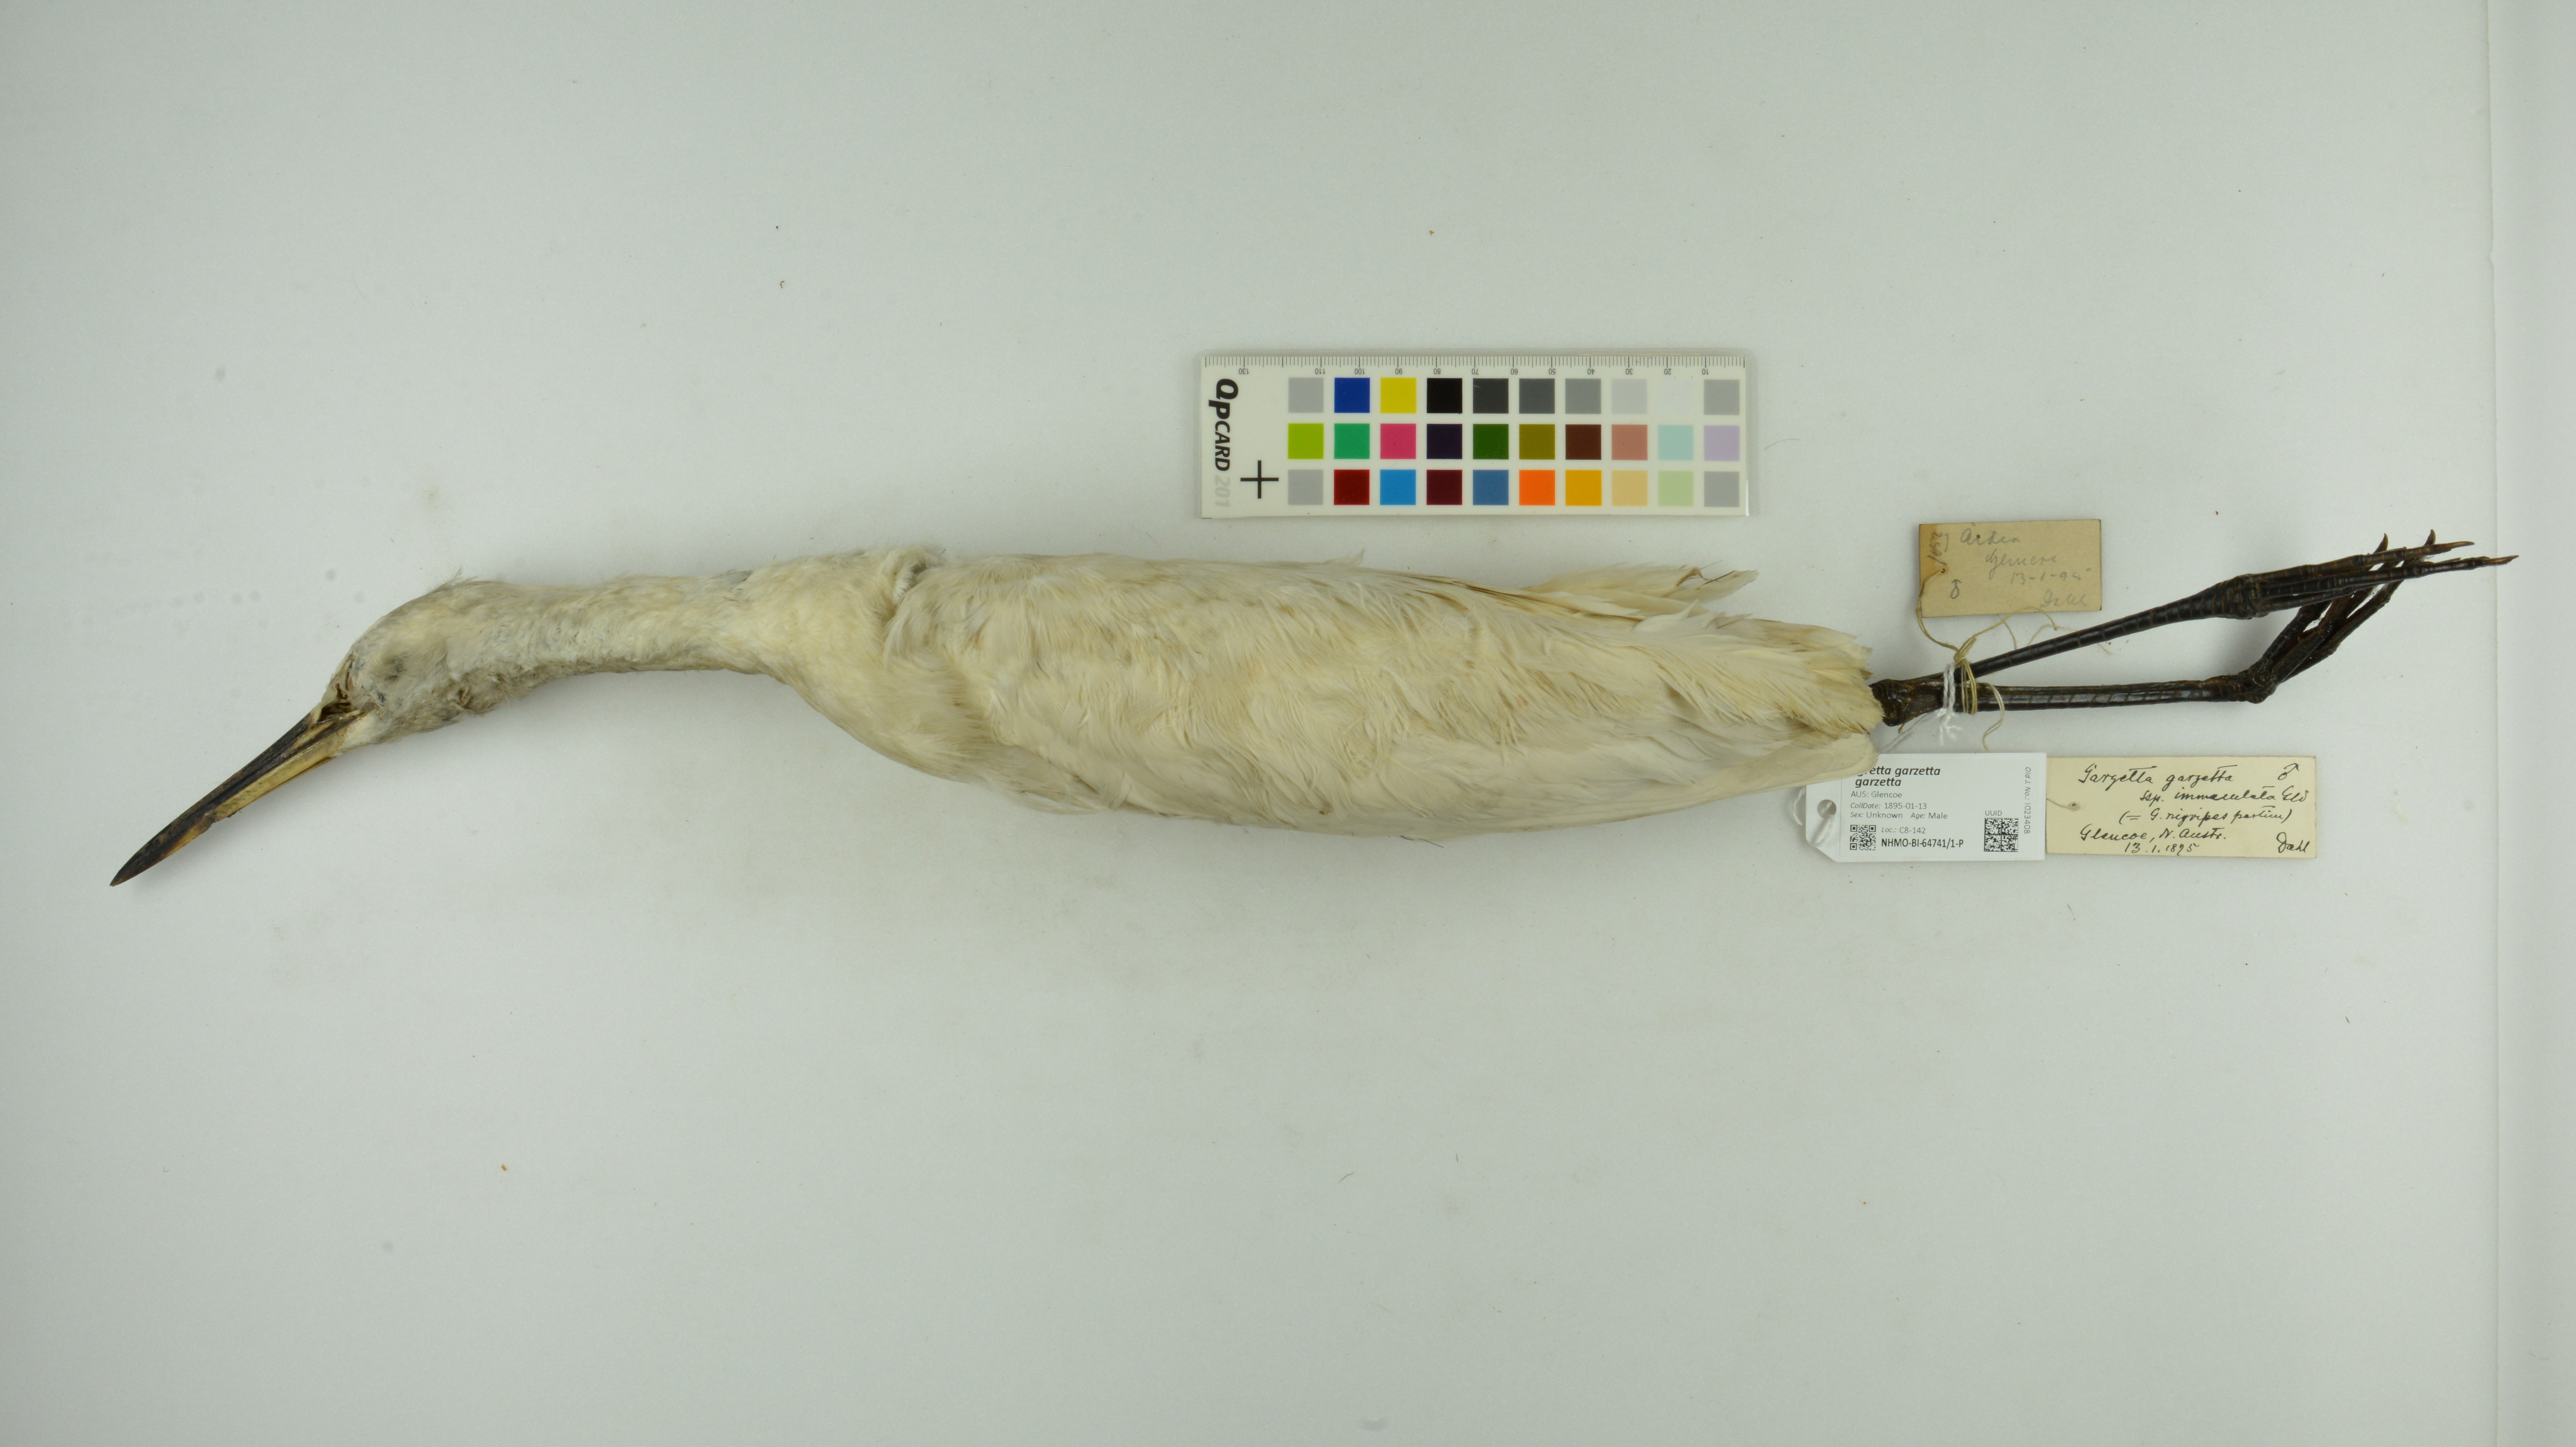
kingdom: Animalia
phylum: Chordata
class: Aves
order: Pelecaniformes
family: Ardeidae
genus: Egretta
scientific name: Egretta garzetta
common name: Little egret
